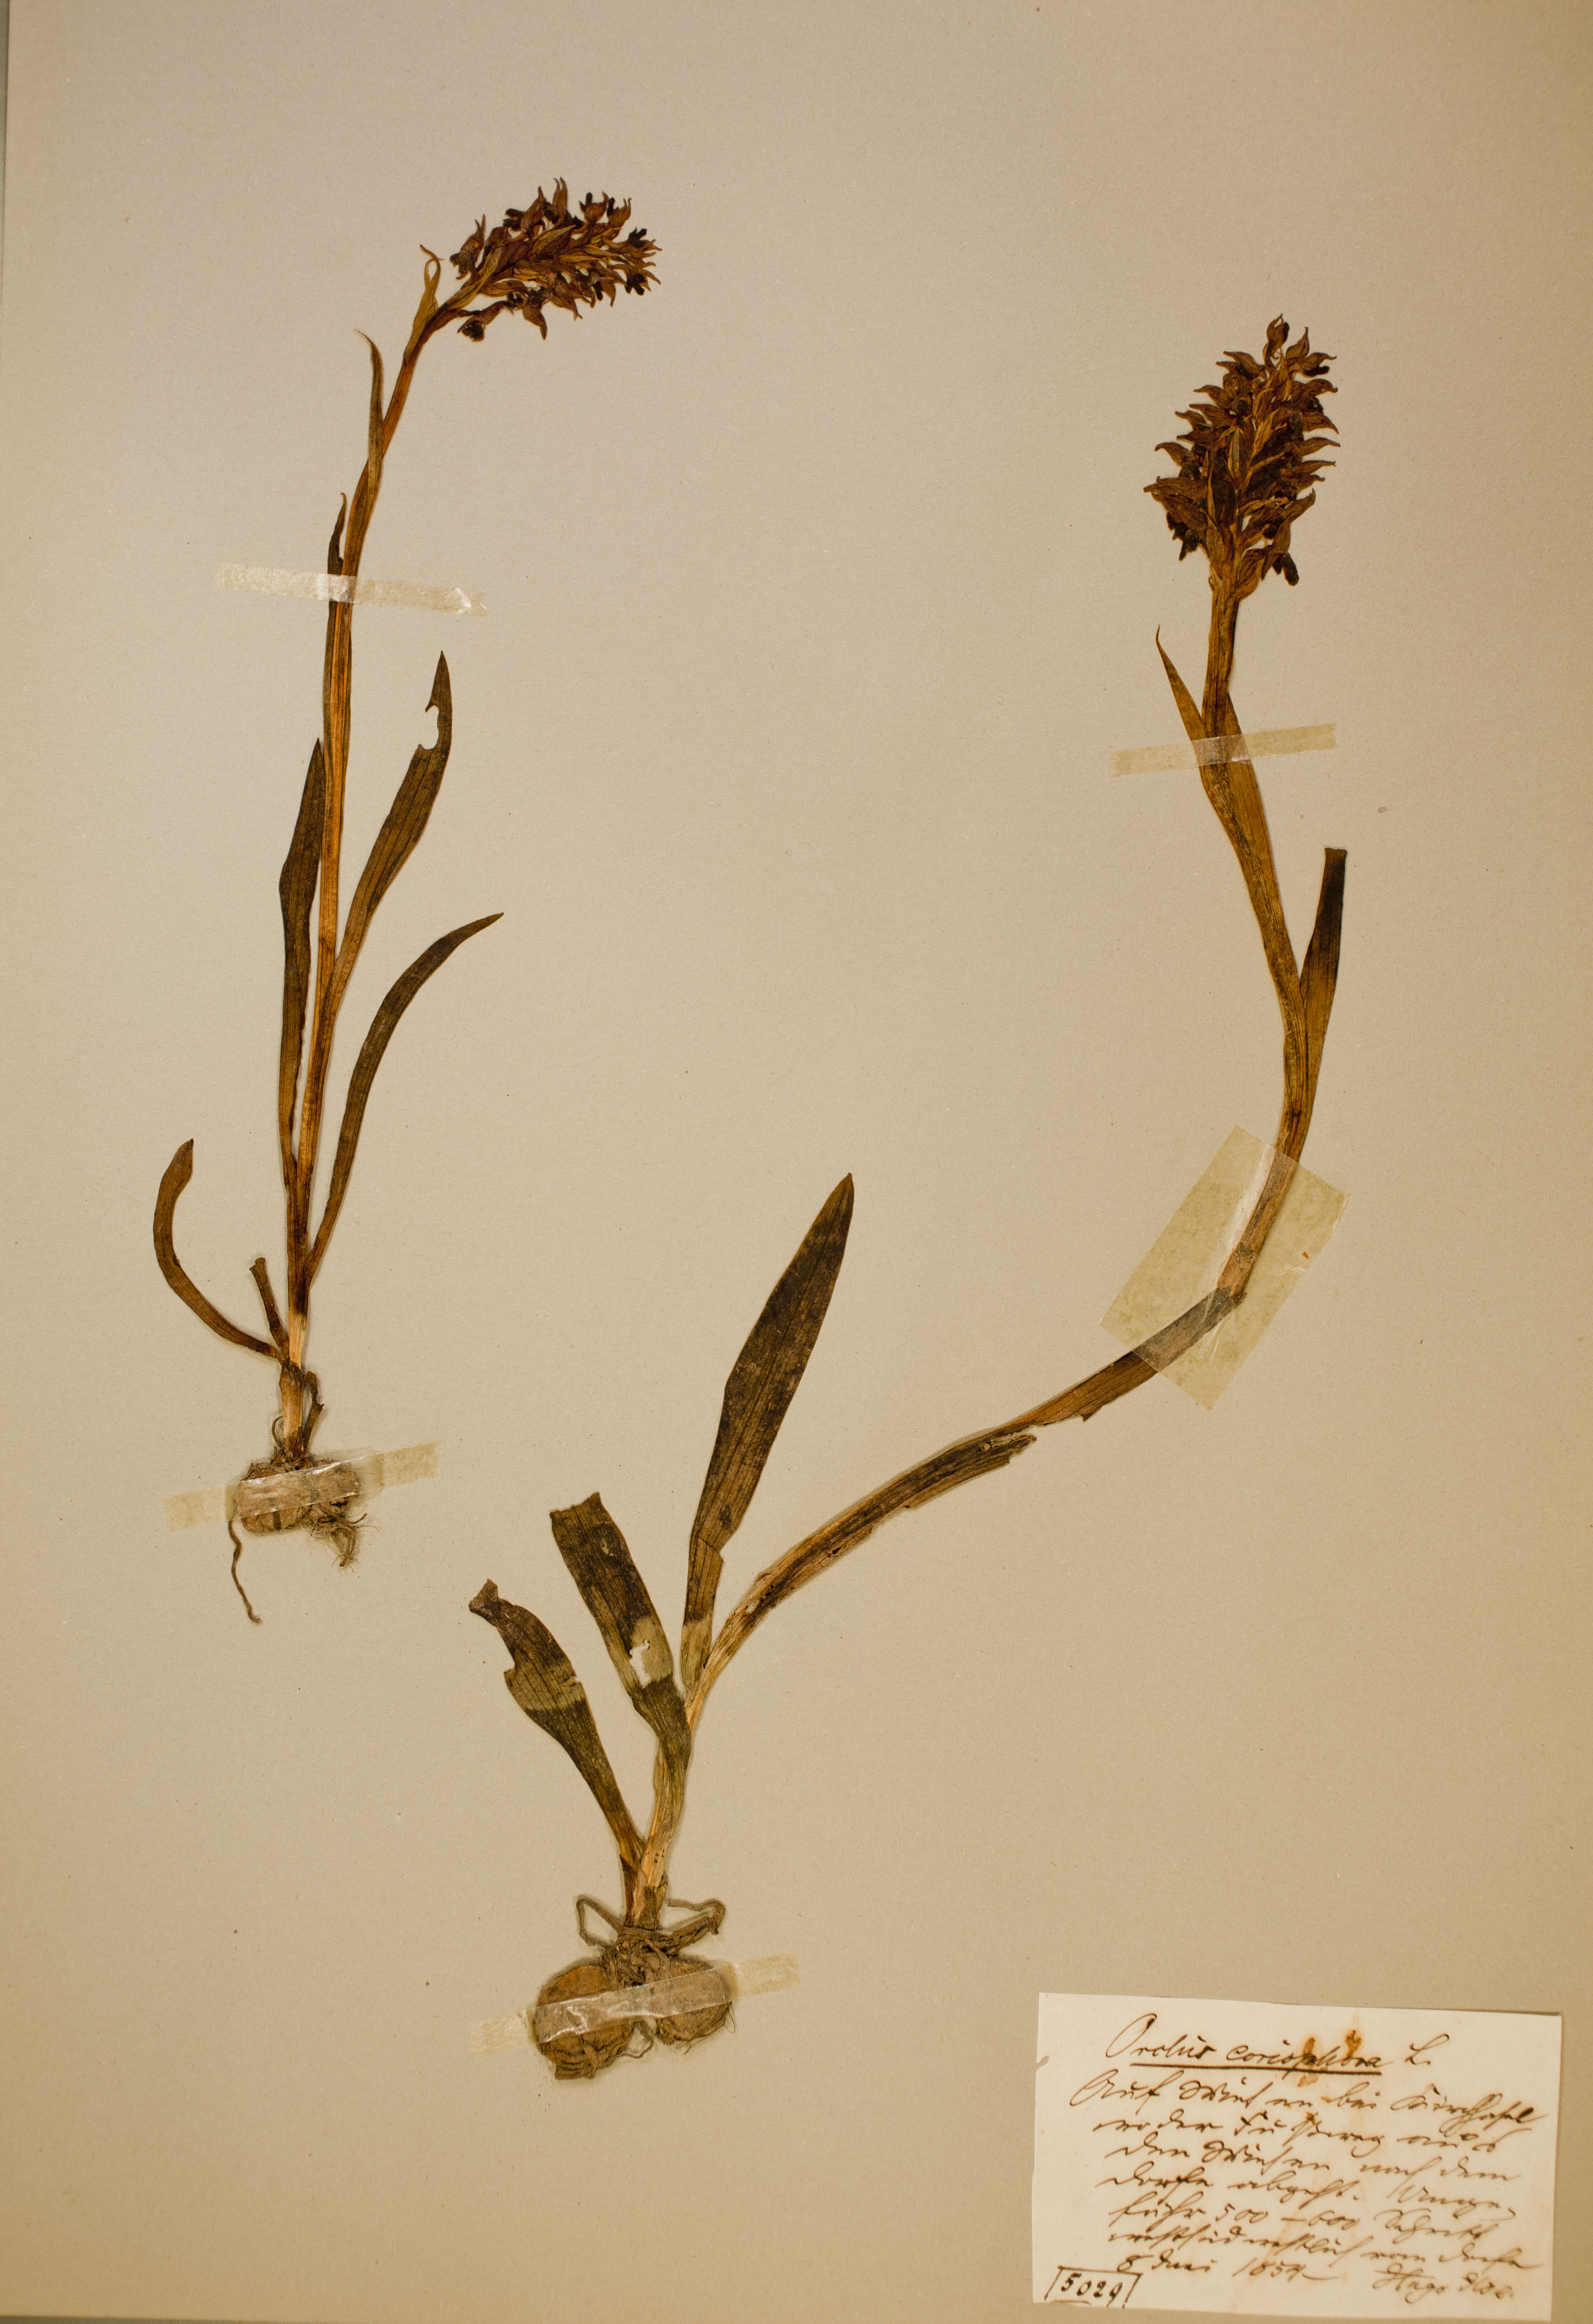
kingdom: Plantae
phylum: Tracheophyta
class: Liliopsida
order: Asparagales
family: Orchidaceae
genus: Anacamptis
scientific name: Anacamptis coriophora
